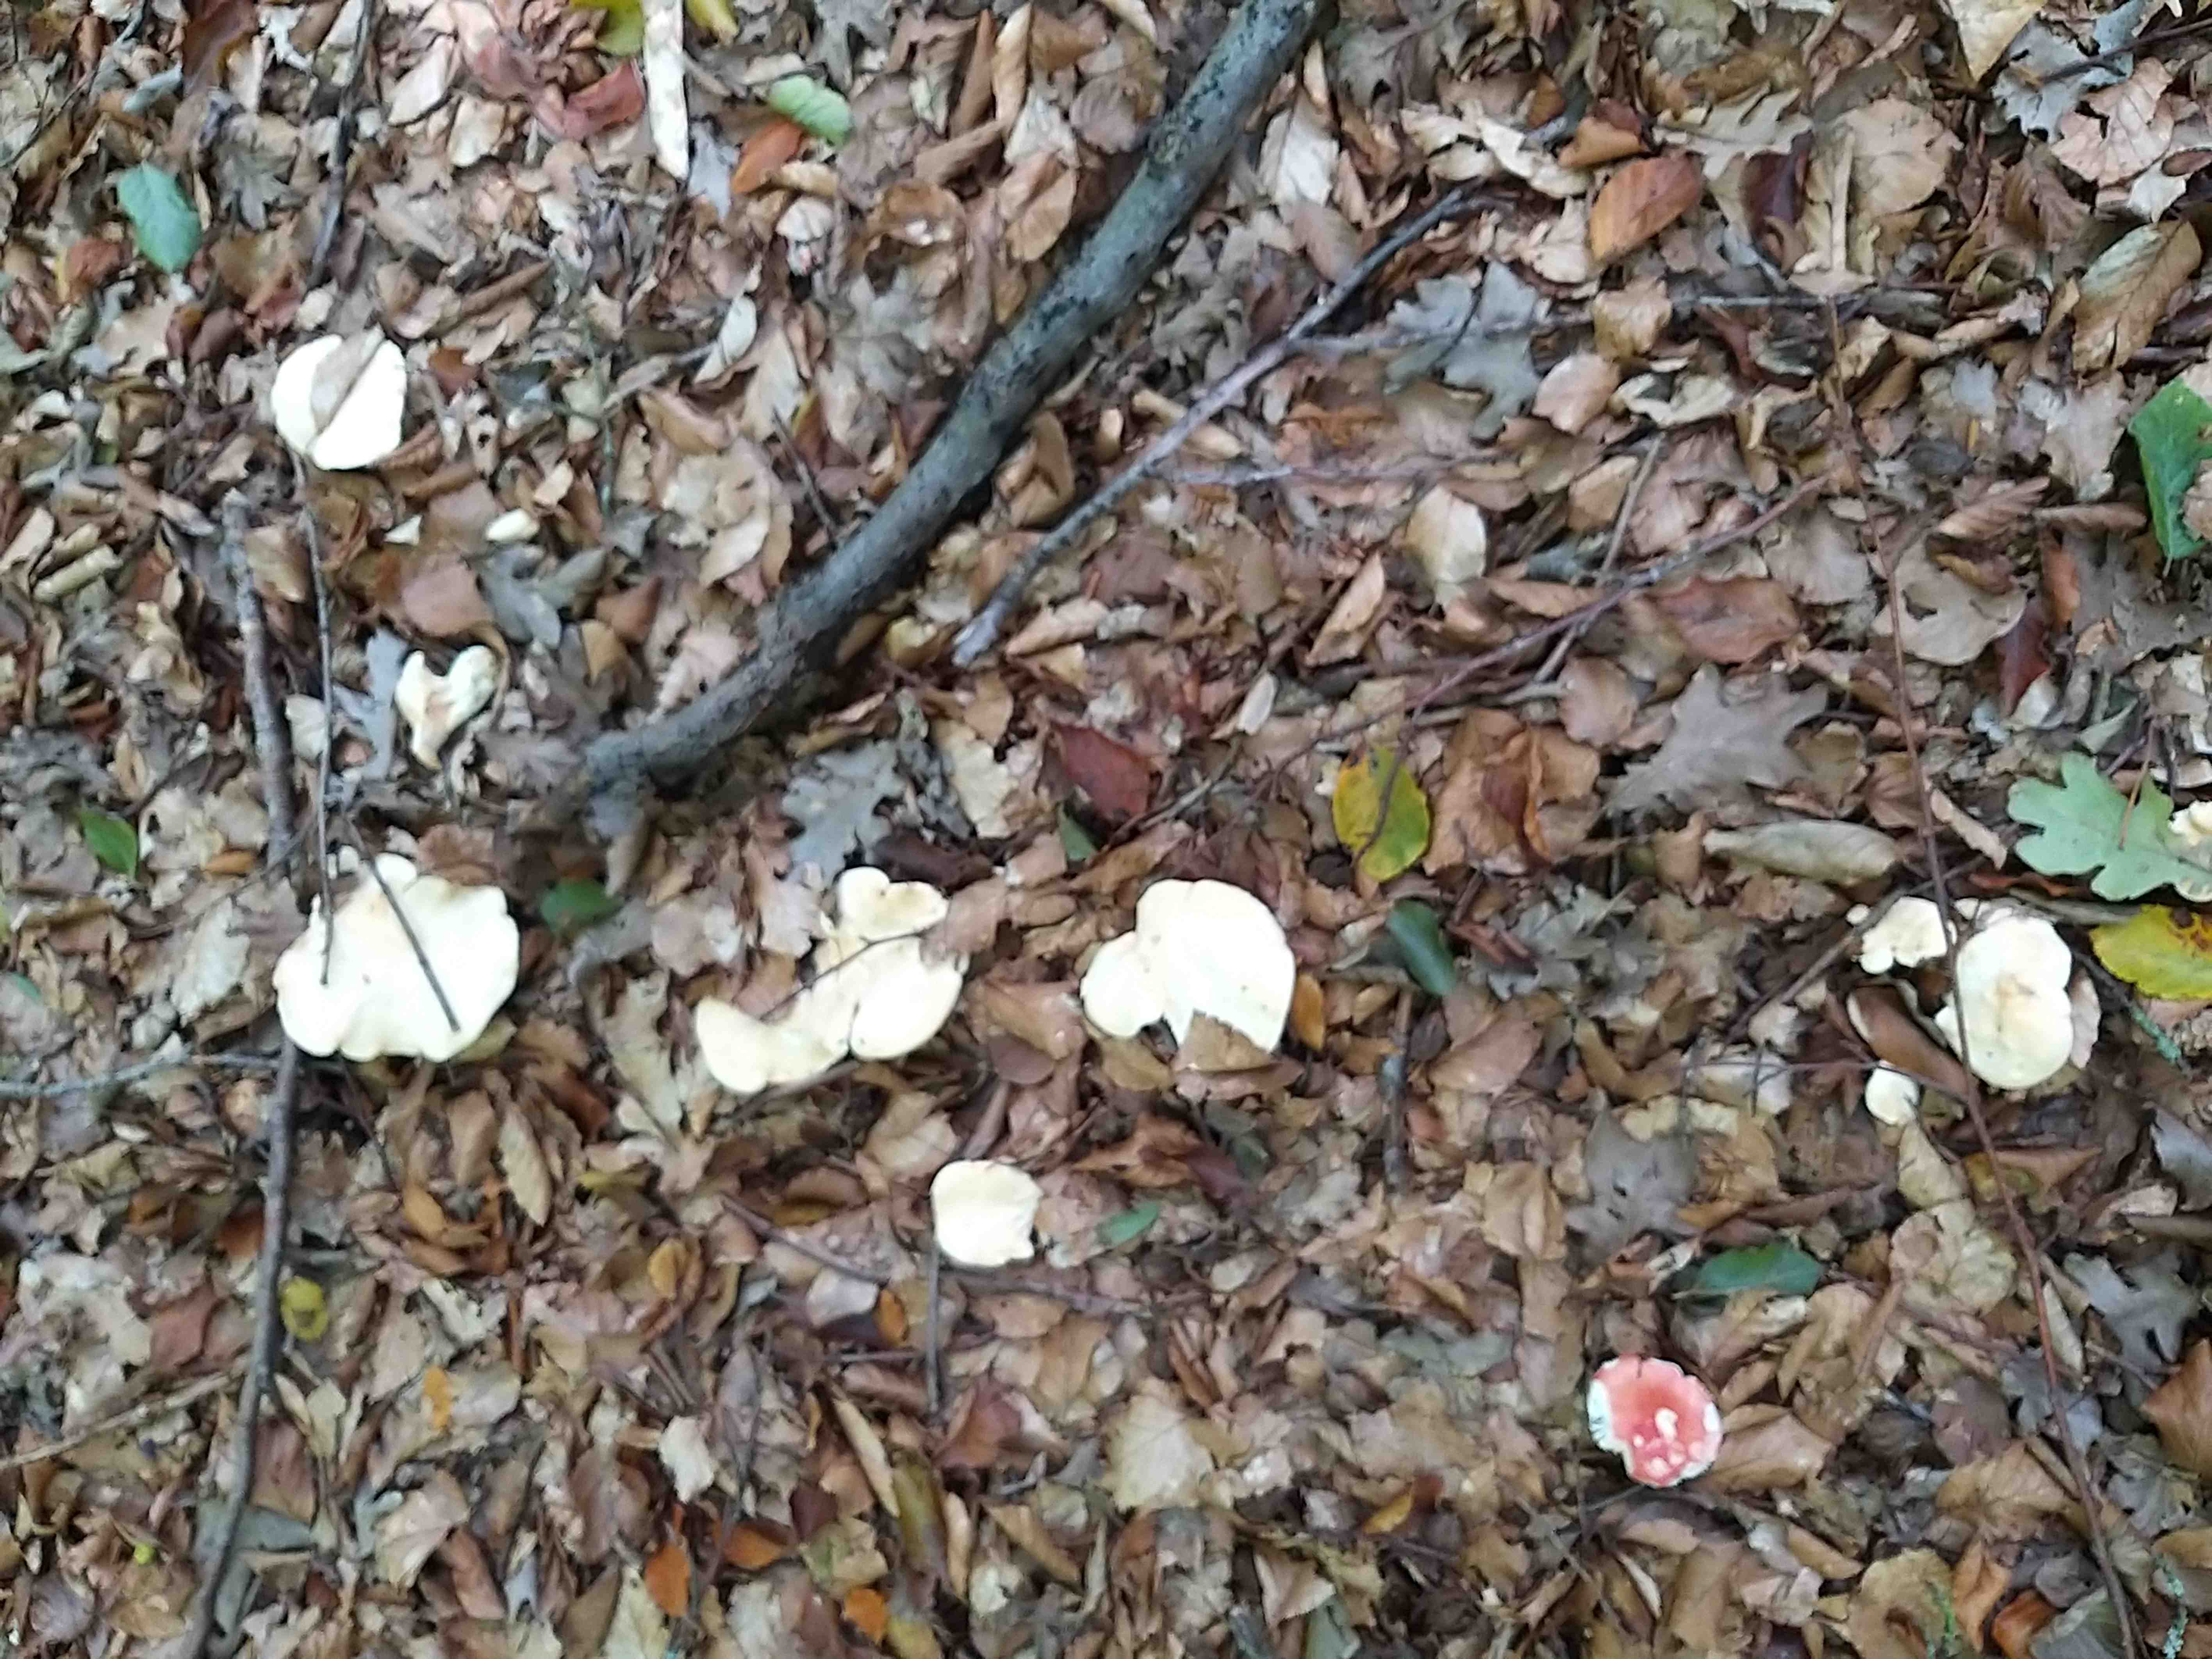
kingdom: Fungi
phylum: Basidiomycota
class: Agaricomycetes
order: Cantharellales
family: Hydnaceae
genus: Hydnum
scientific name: Hydnum
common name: pigsvamp
